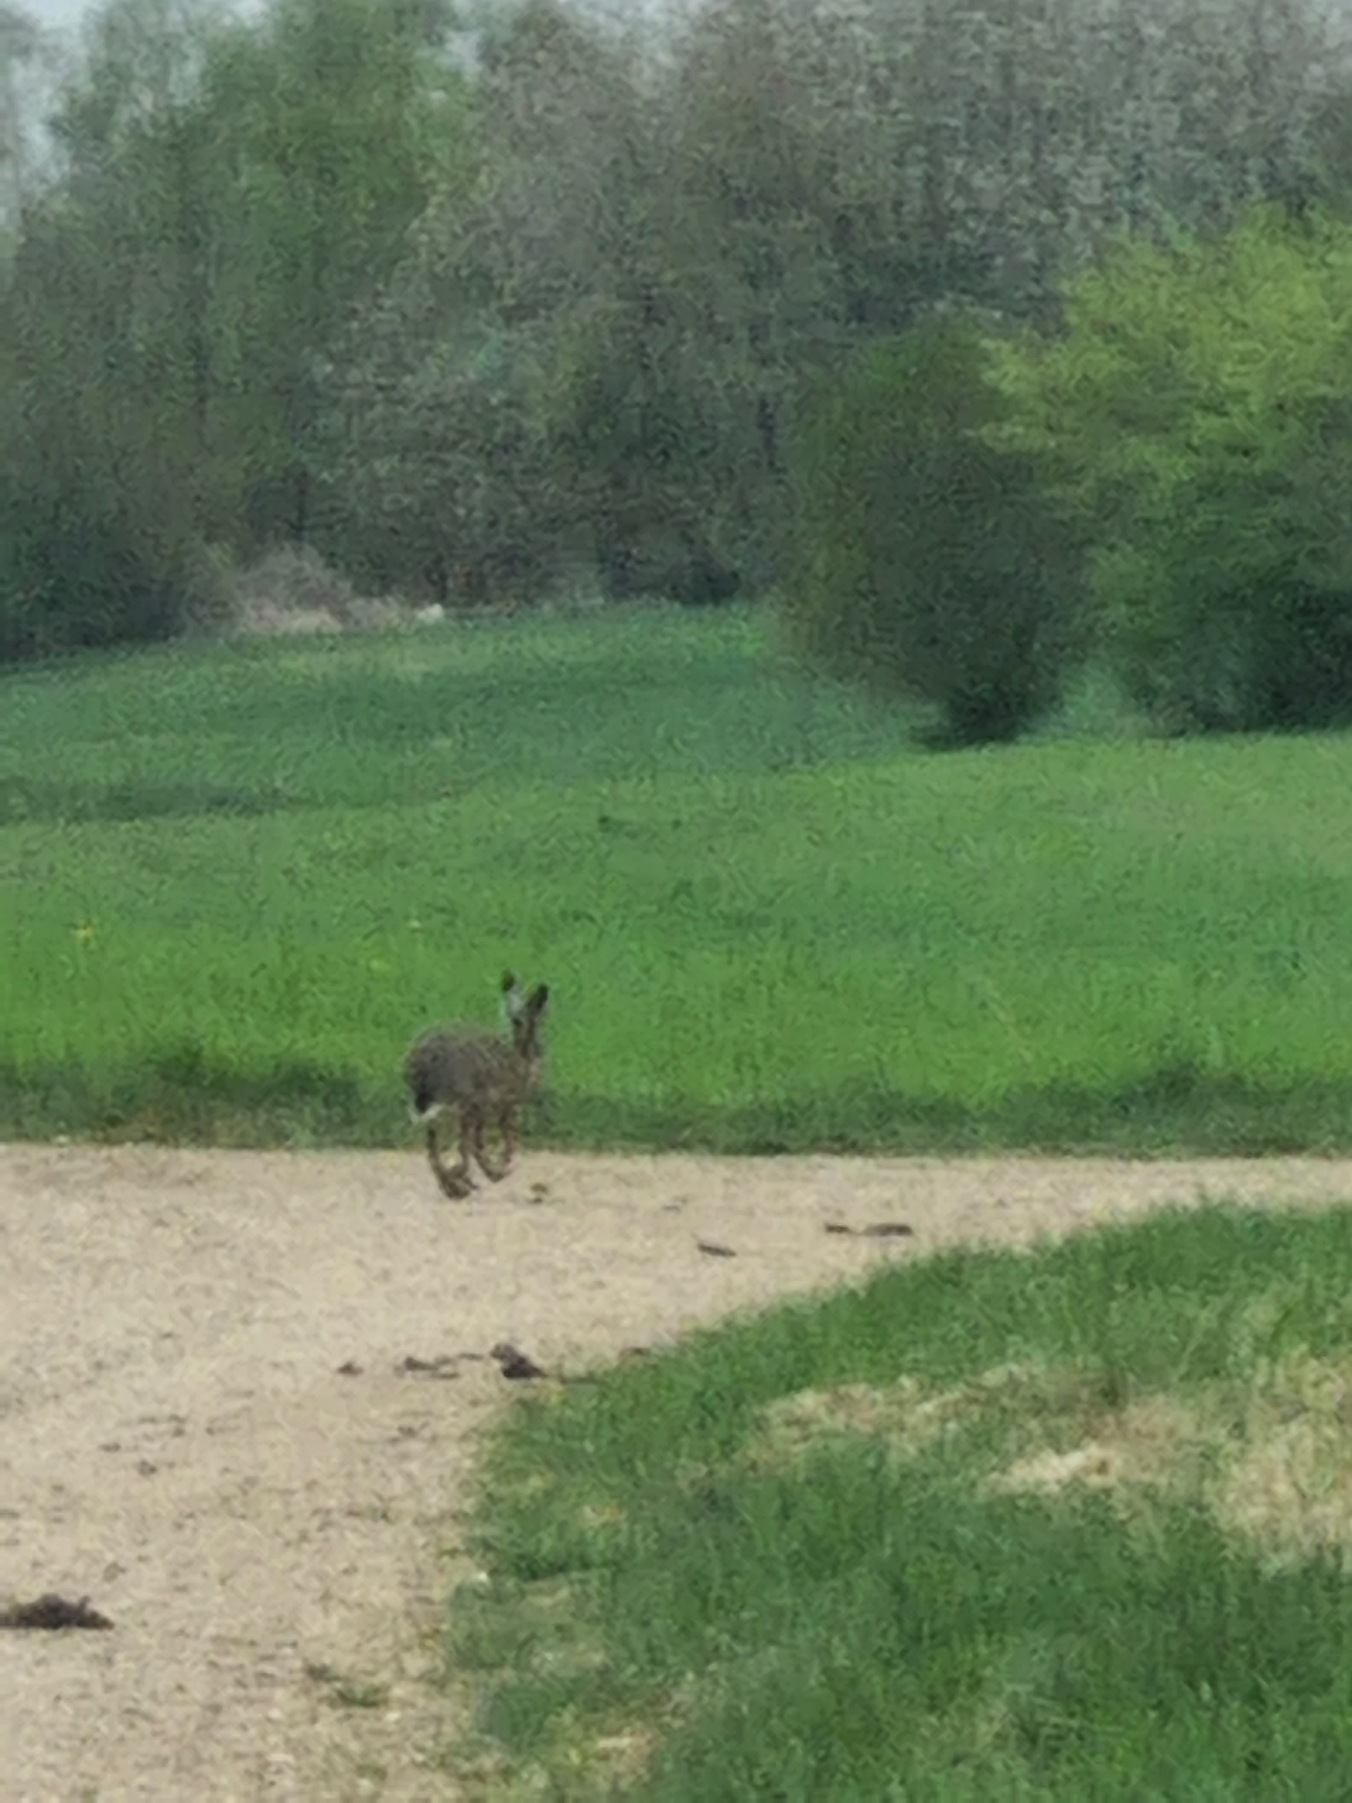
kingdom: Animalia
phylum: Chordata
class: Mammalia
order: Lagomorpha
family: Leporidae
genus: Lepus
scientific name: Lepus europaeus
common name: Hare
